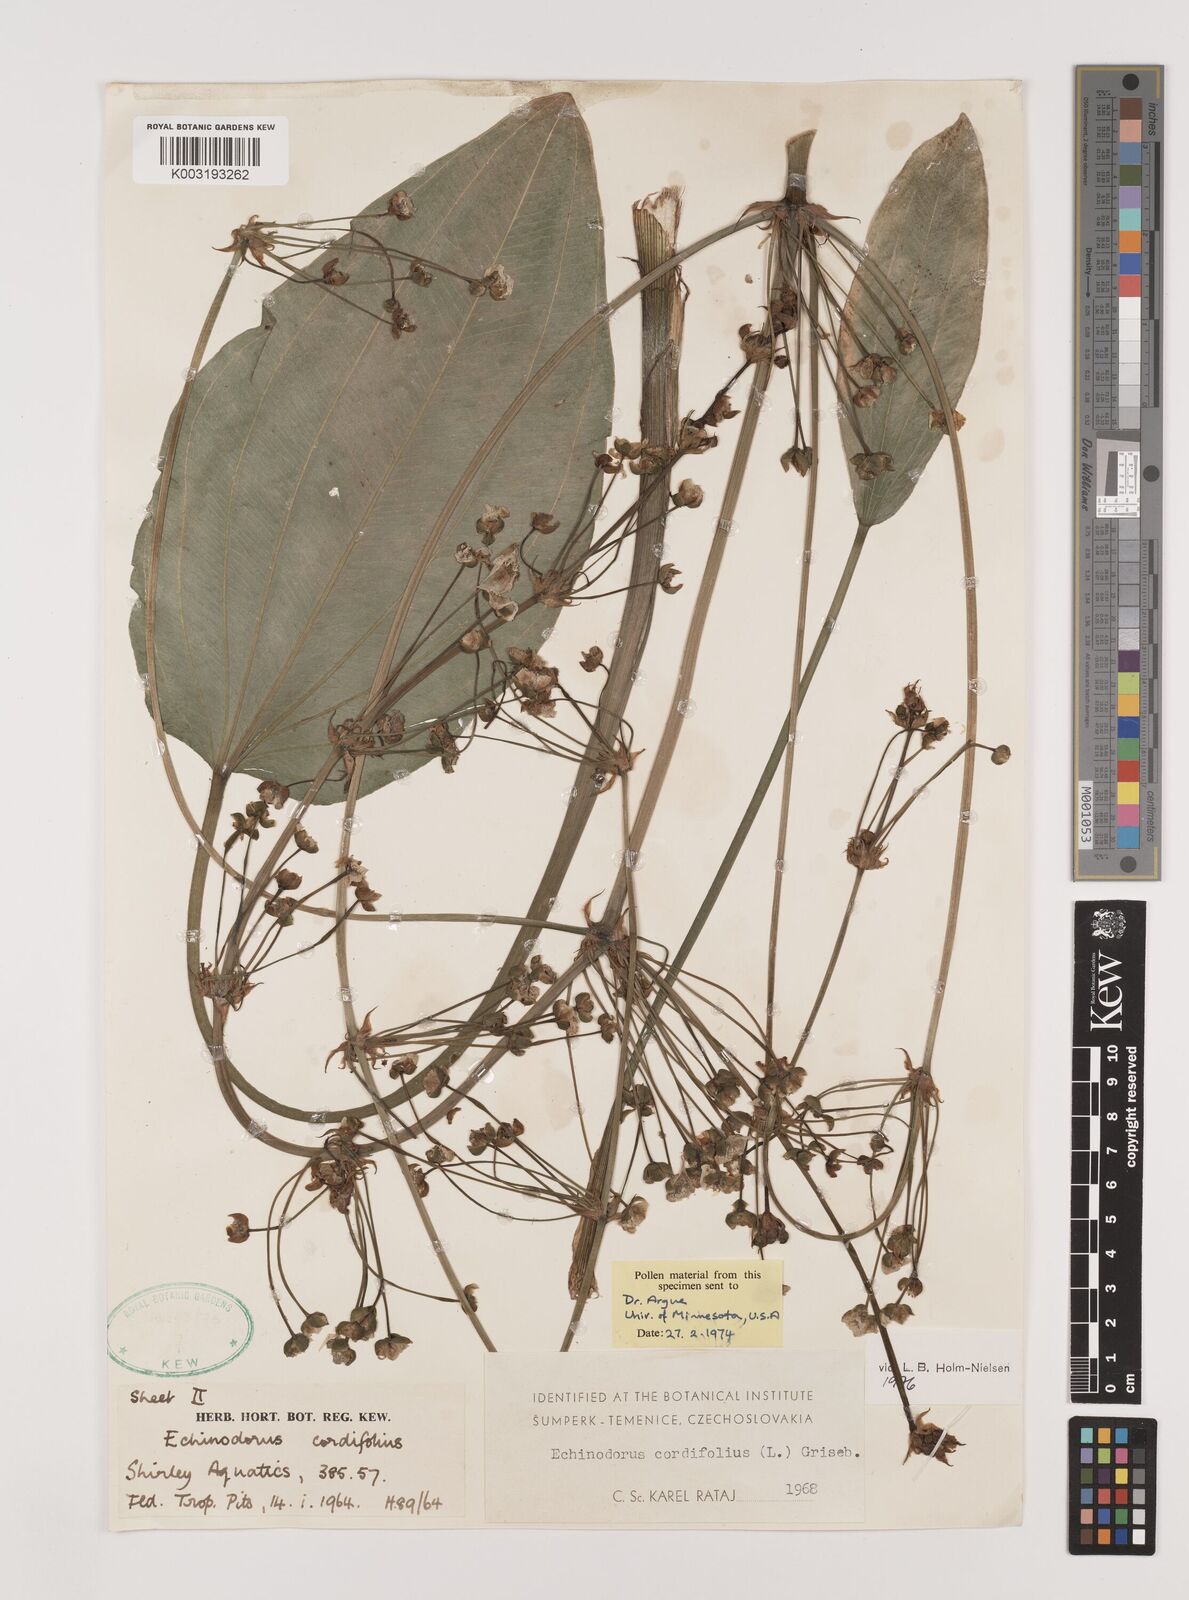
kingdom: Plantae
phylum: Tracheophyta
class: Liliopsida
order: Alismatales
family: Alismataceae
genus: Aquarius
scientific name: Aquarius cordifolius
